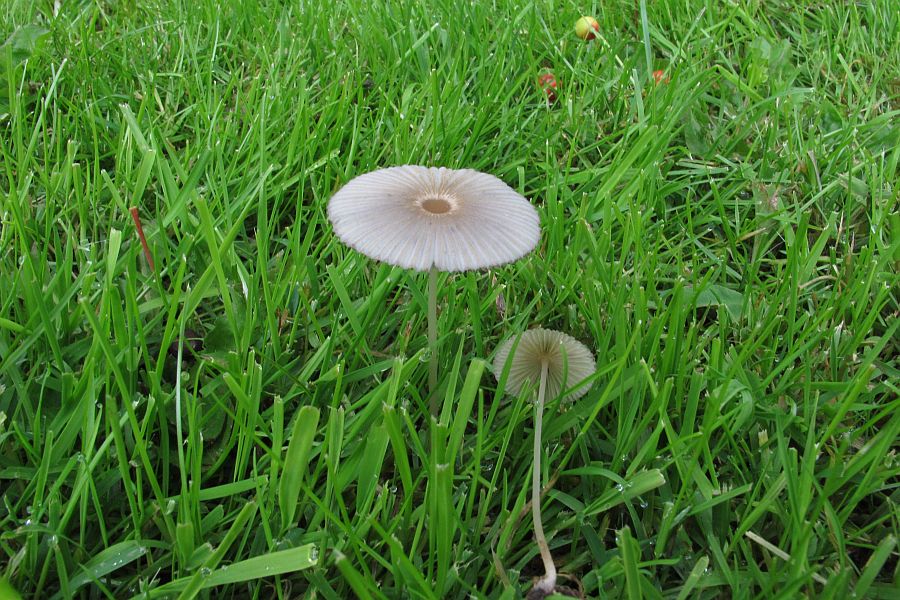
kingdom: Fungi
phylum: Basidiomycota
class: Agaricomycetes
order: Agaricales
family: Psathyrellaceae
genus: Parasola
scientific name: Parasola kuehneri
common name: skygge-hjulhat
